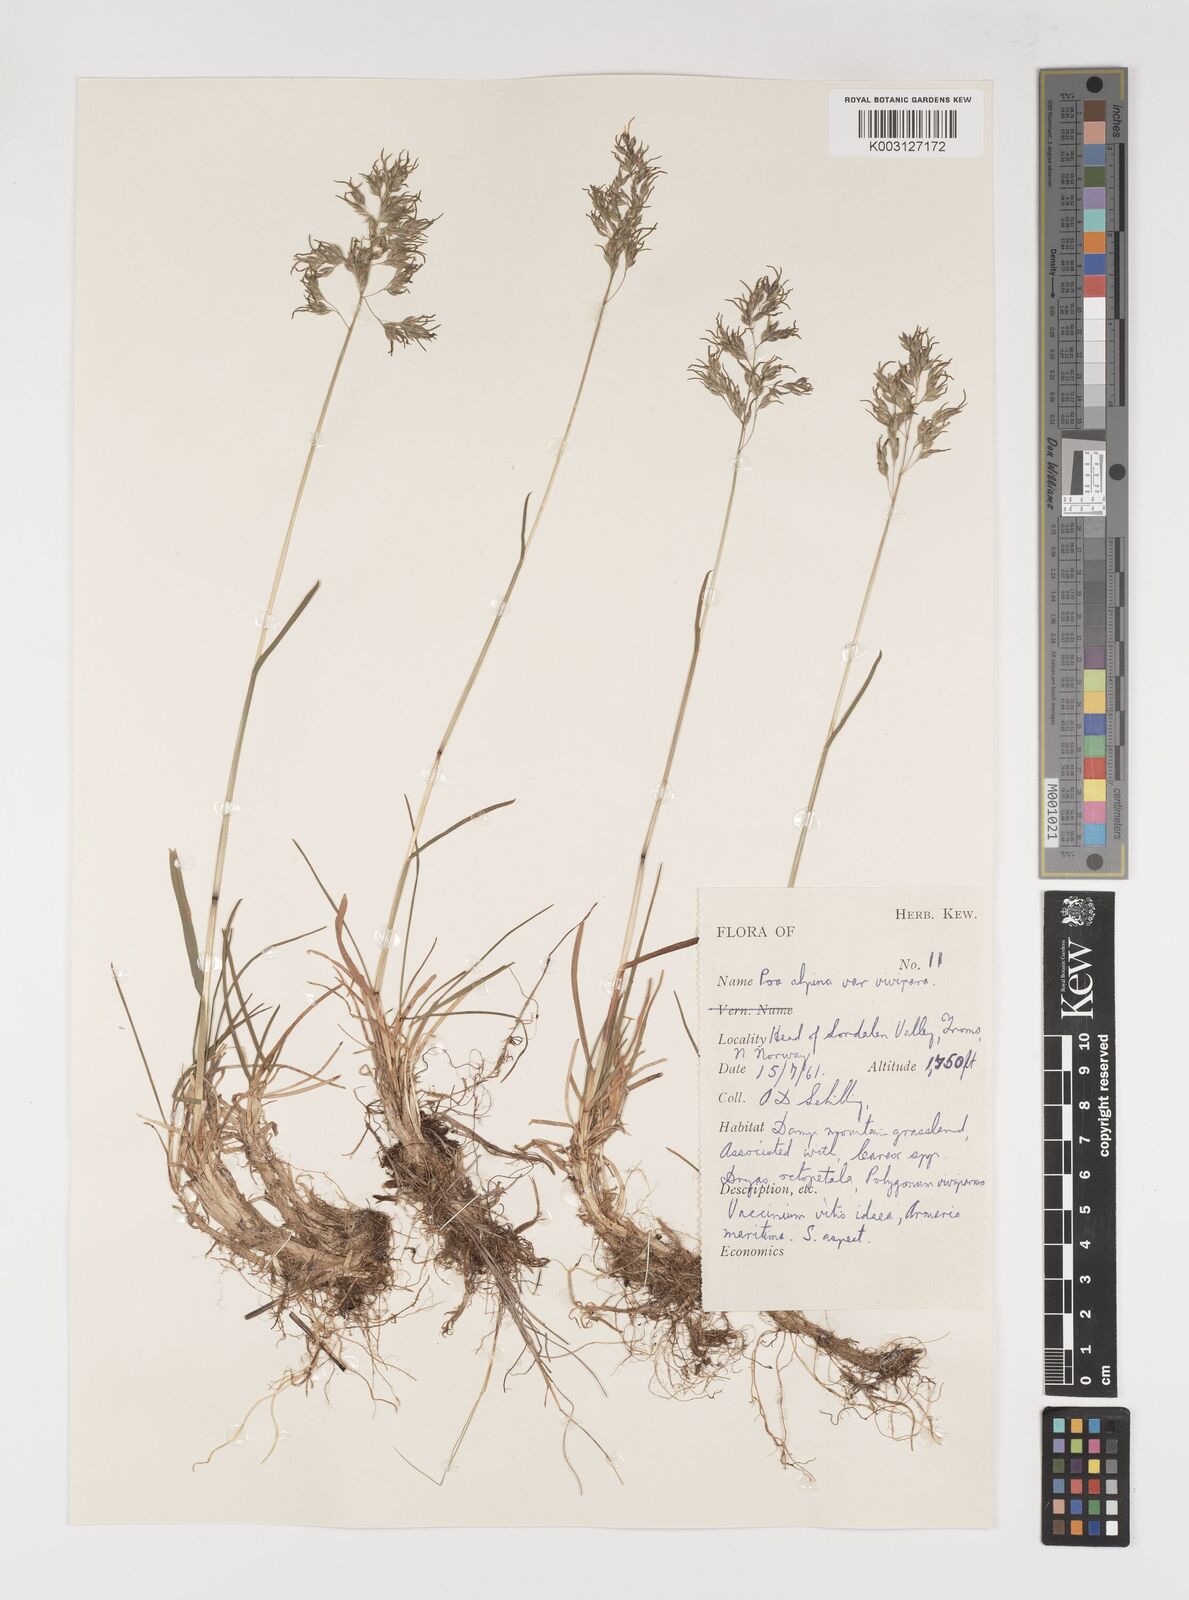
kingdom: Plantae
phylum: Tracheophyta
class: Liliopsida
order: Poales
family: Poaceae
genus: Poa
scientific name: Poa alpina
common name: Alpine bluegrass
